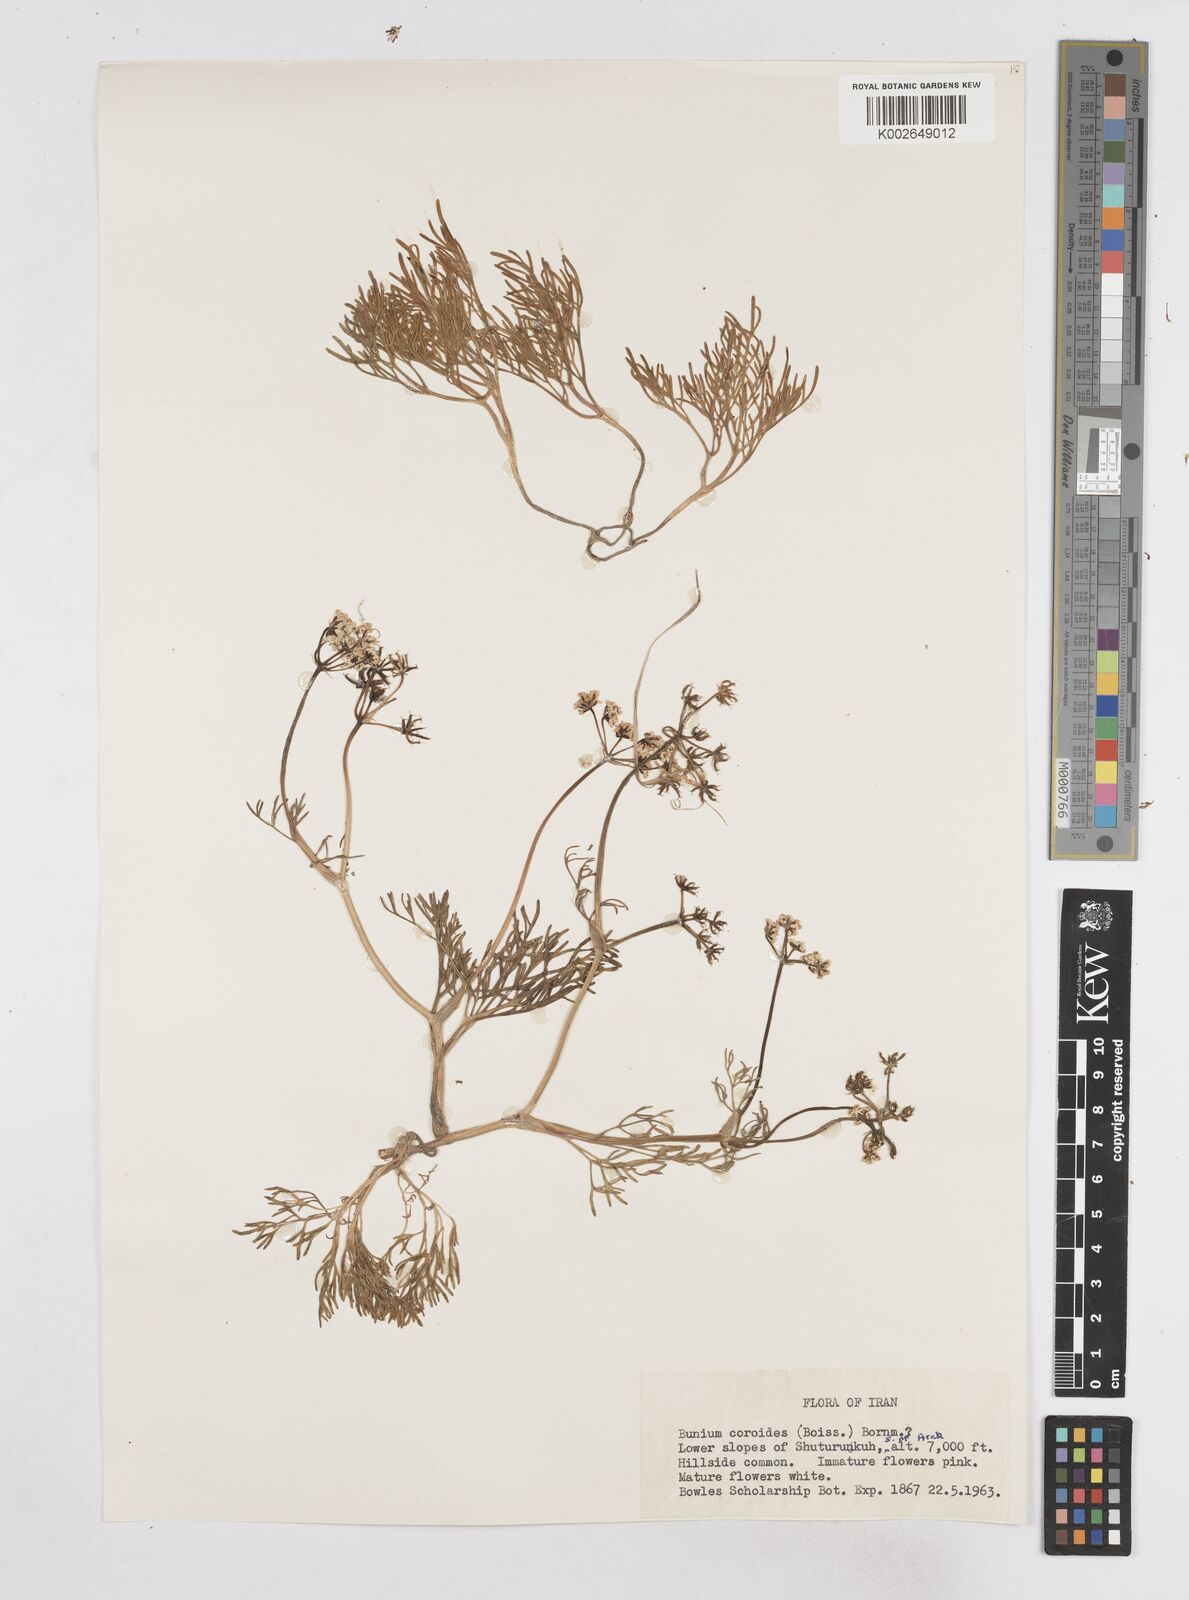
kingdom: Plantae
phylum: Tracheophyta
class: Magnoliopsida
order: Apiales
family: Apiaceae
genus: Elwendia
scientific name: Elwendia caroides
